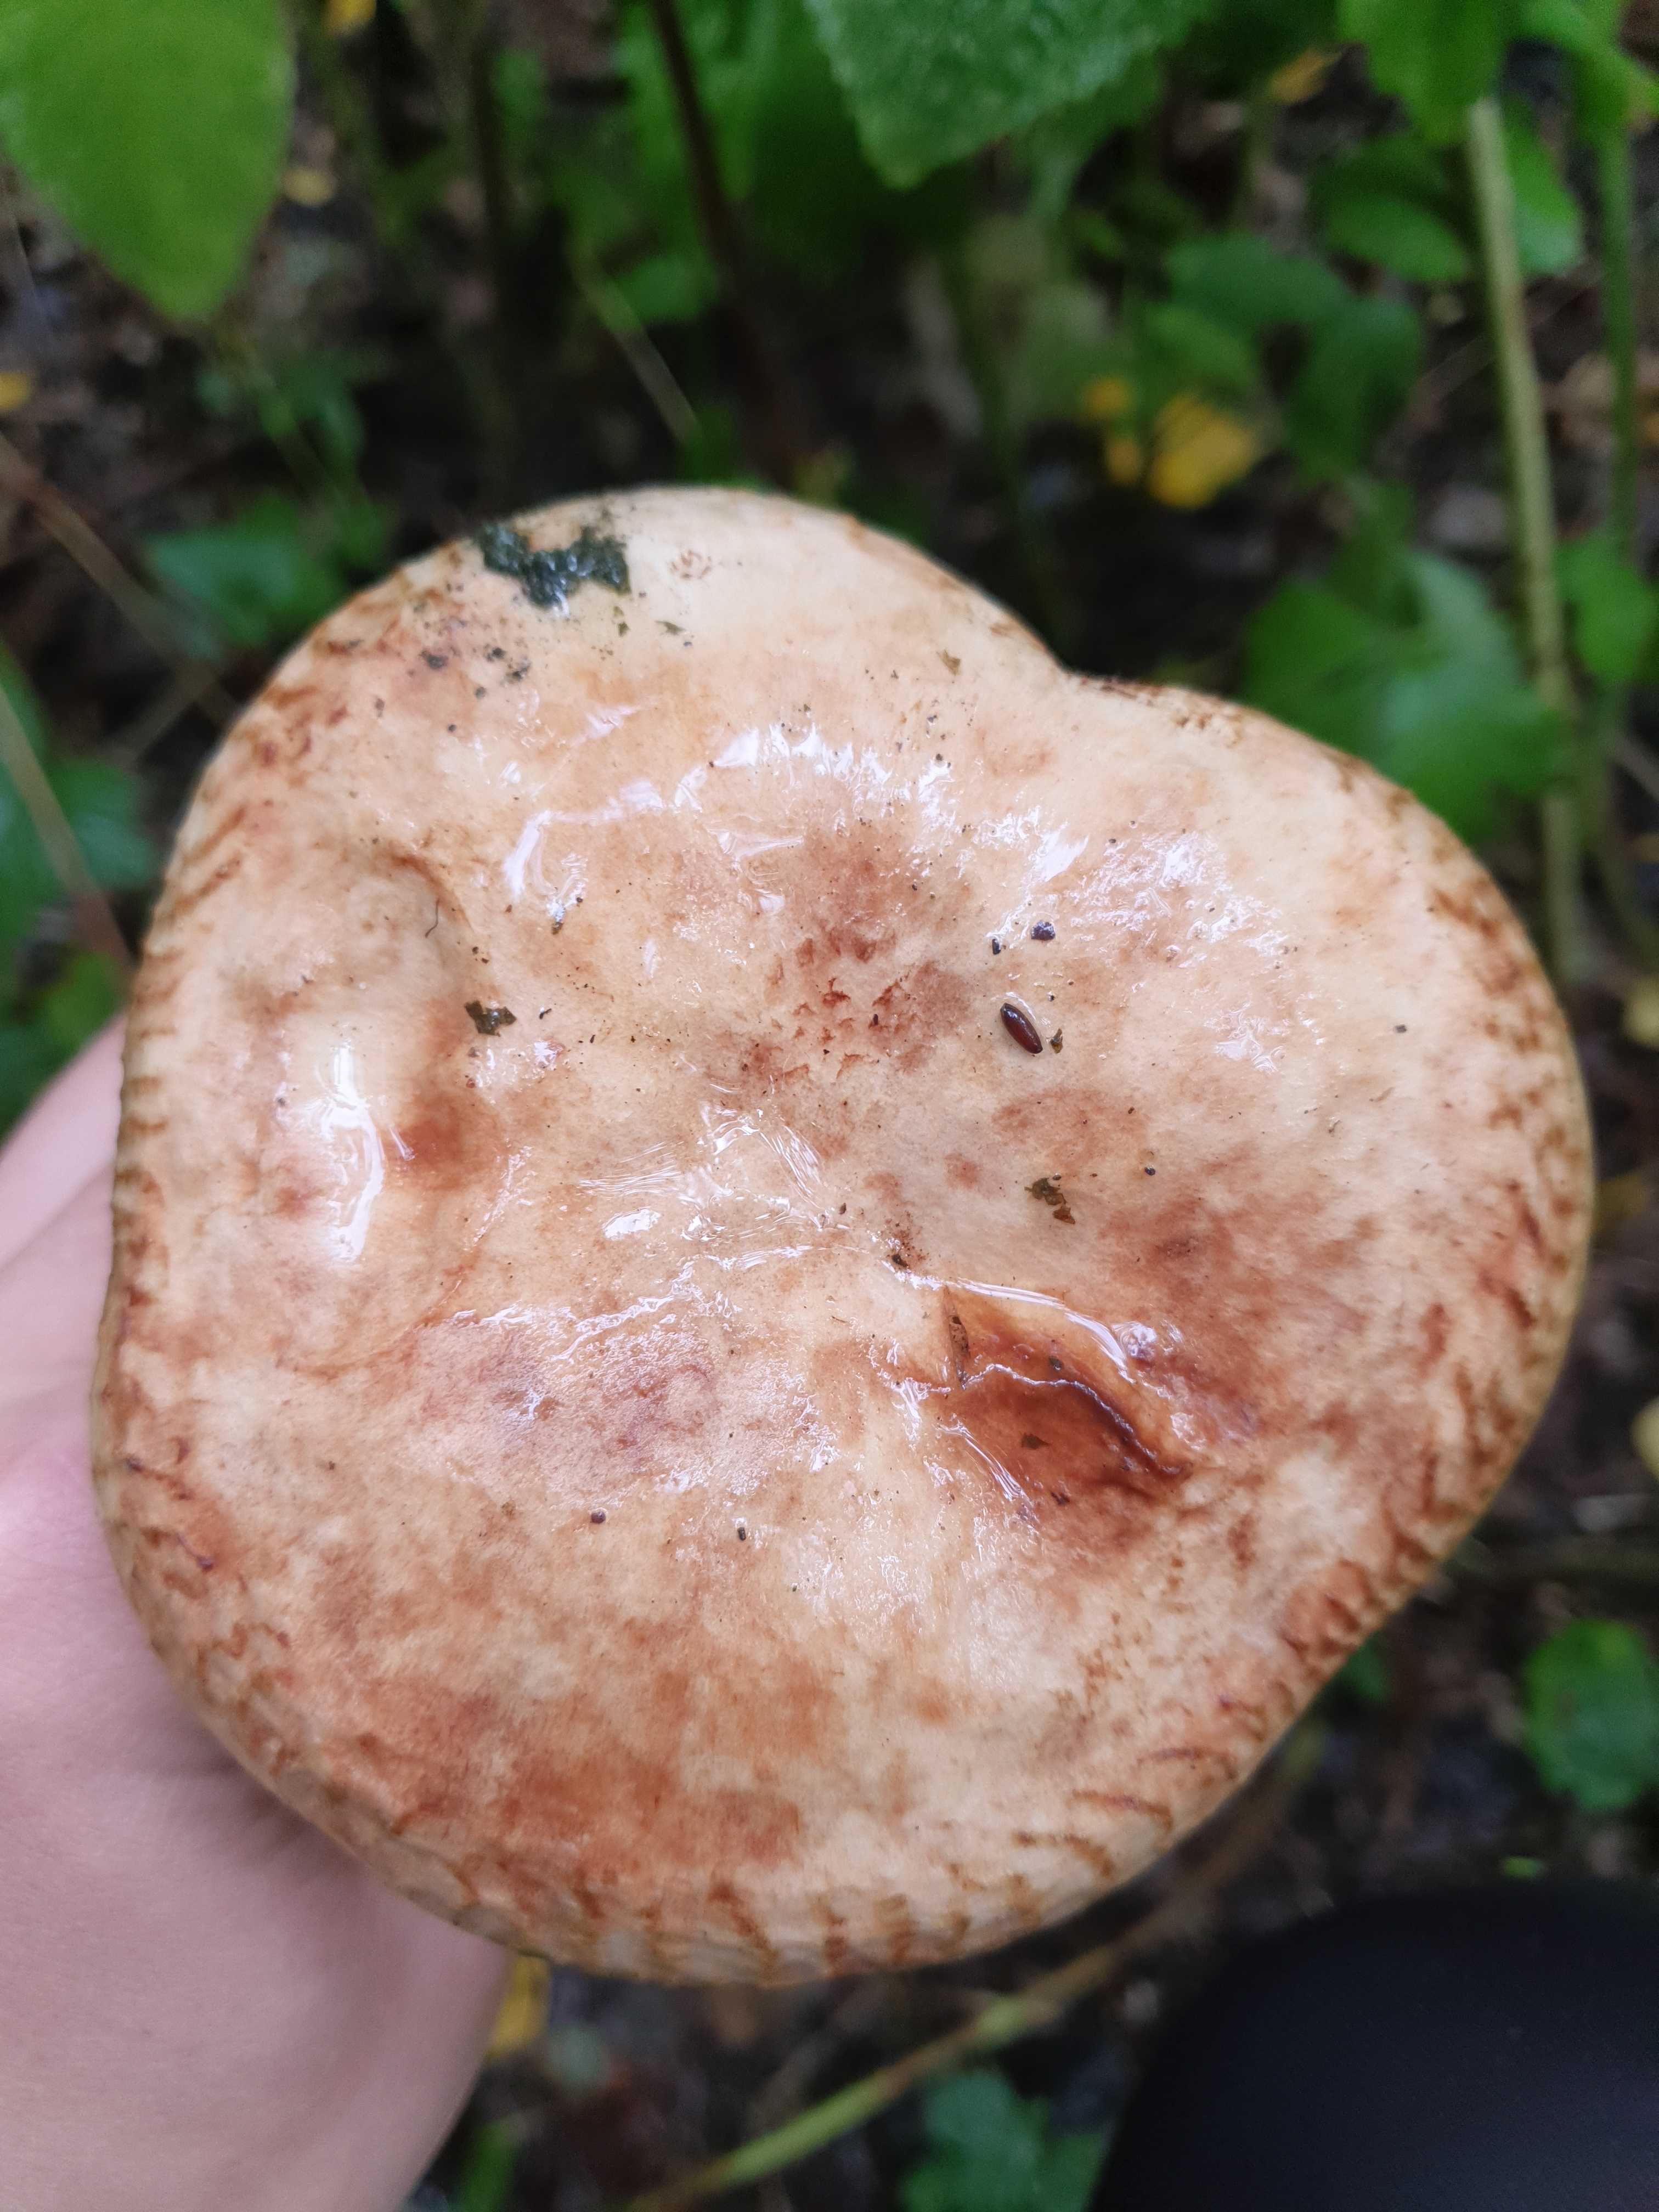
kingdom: Fungi
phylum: Basidiomycota
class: Agaricomycetes
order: Boletales
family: Paxillaceae
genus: Paxillus
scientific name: Paxillus
